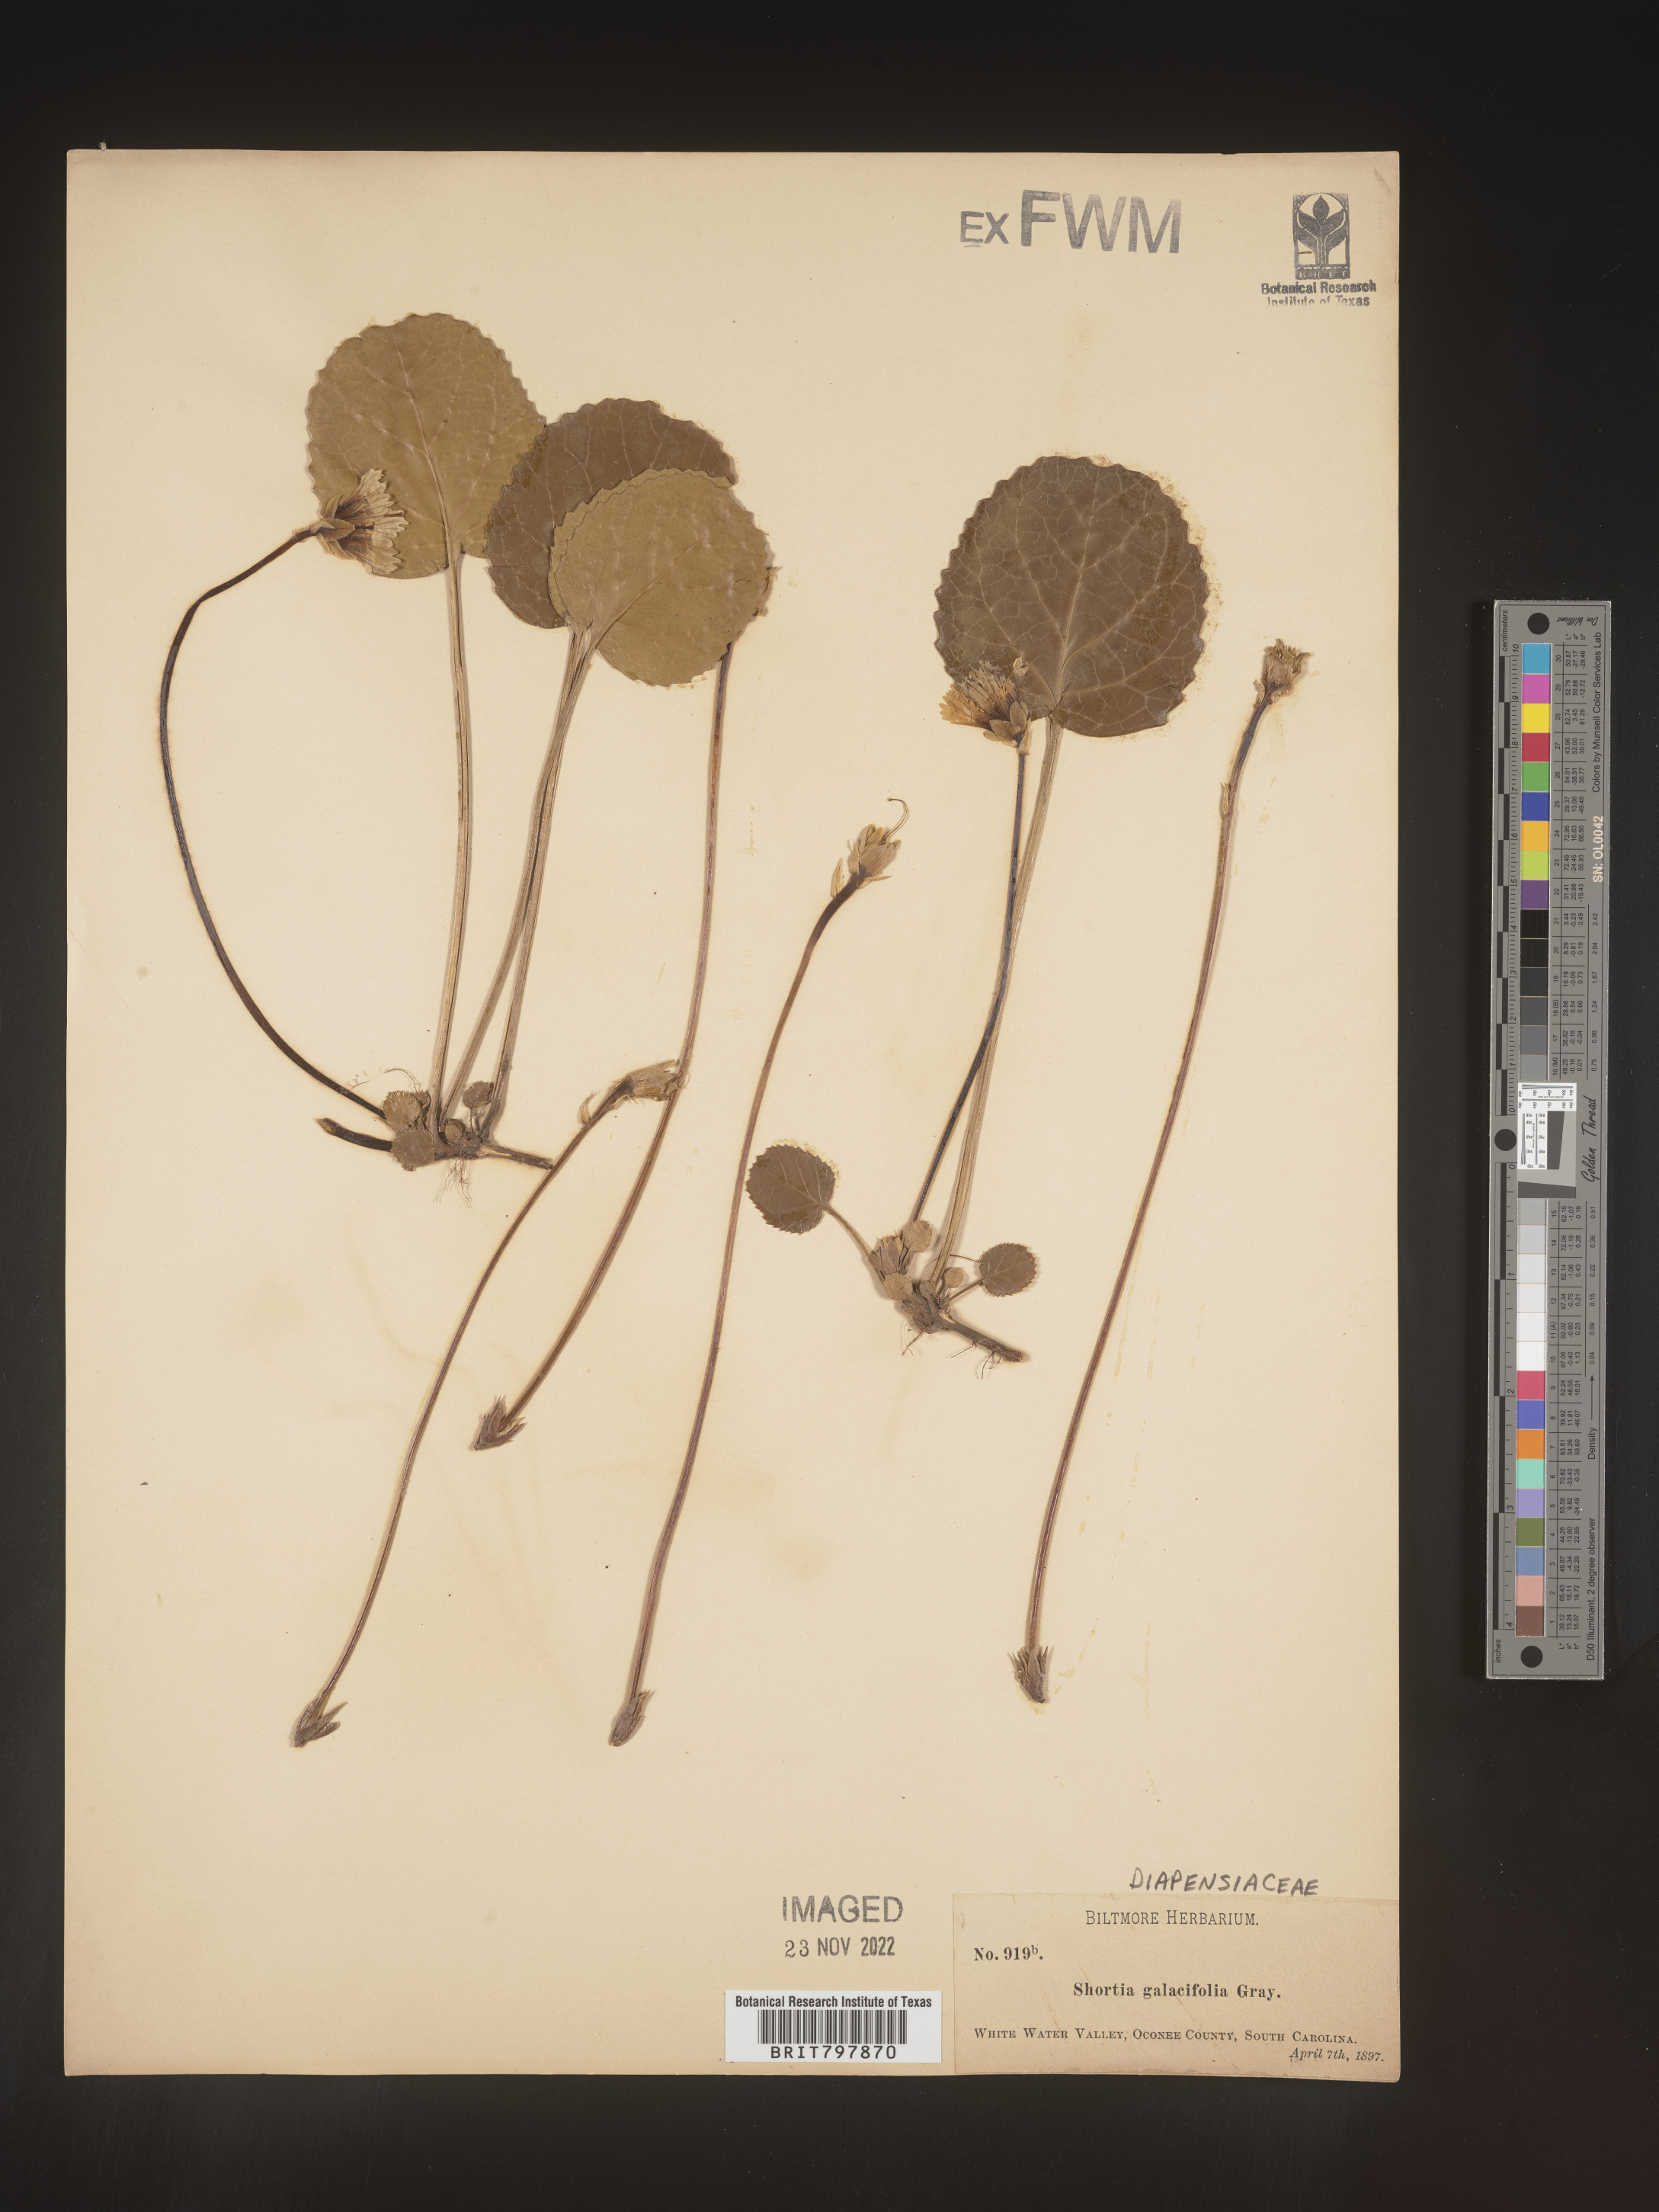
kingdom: Plantae
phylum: Tracheophyta
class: Magnoliopsida
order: Ericales
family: Diapensiaceae
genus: Shortia
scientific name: Shortia galacifolia
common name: Shortia
